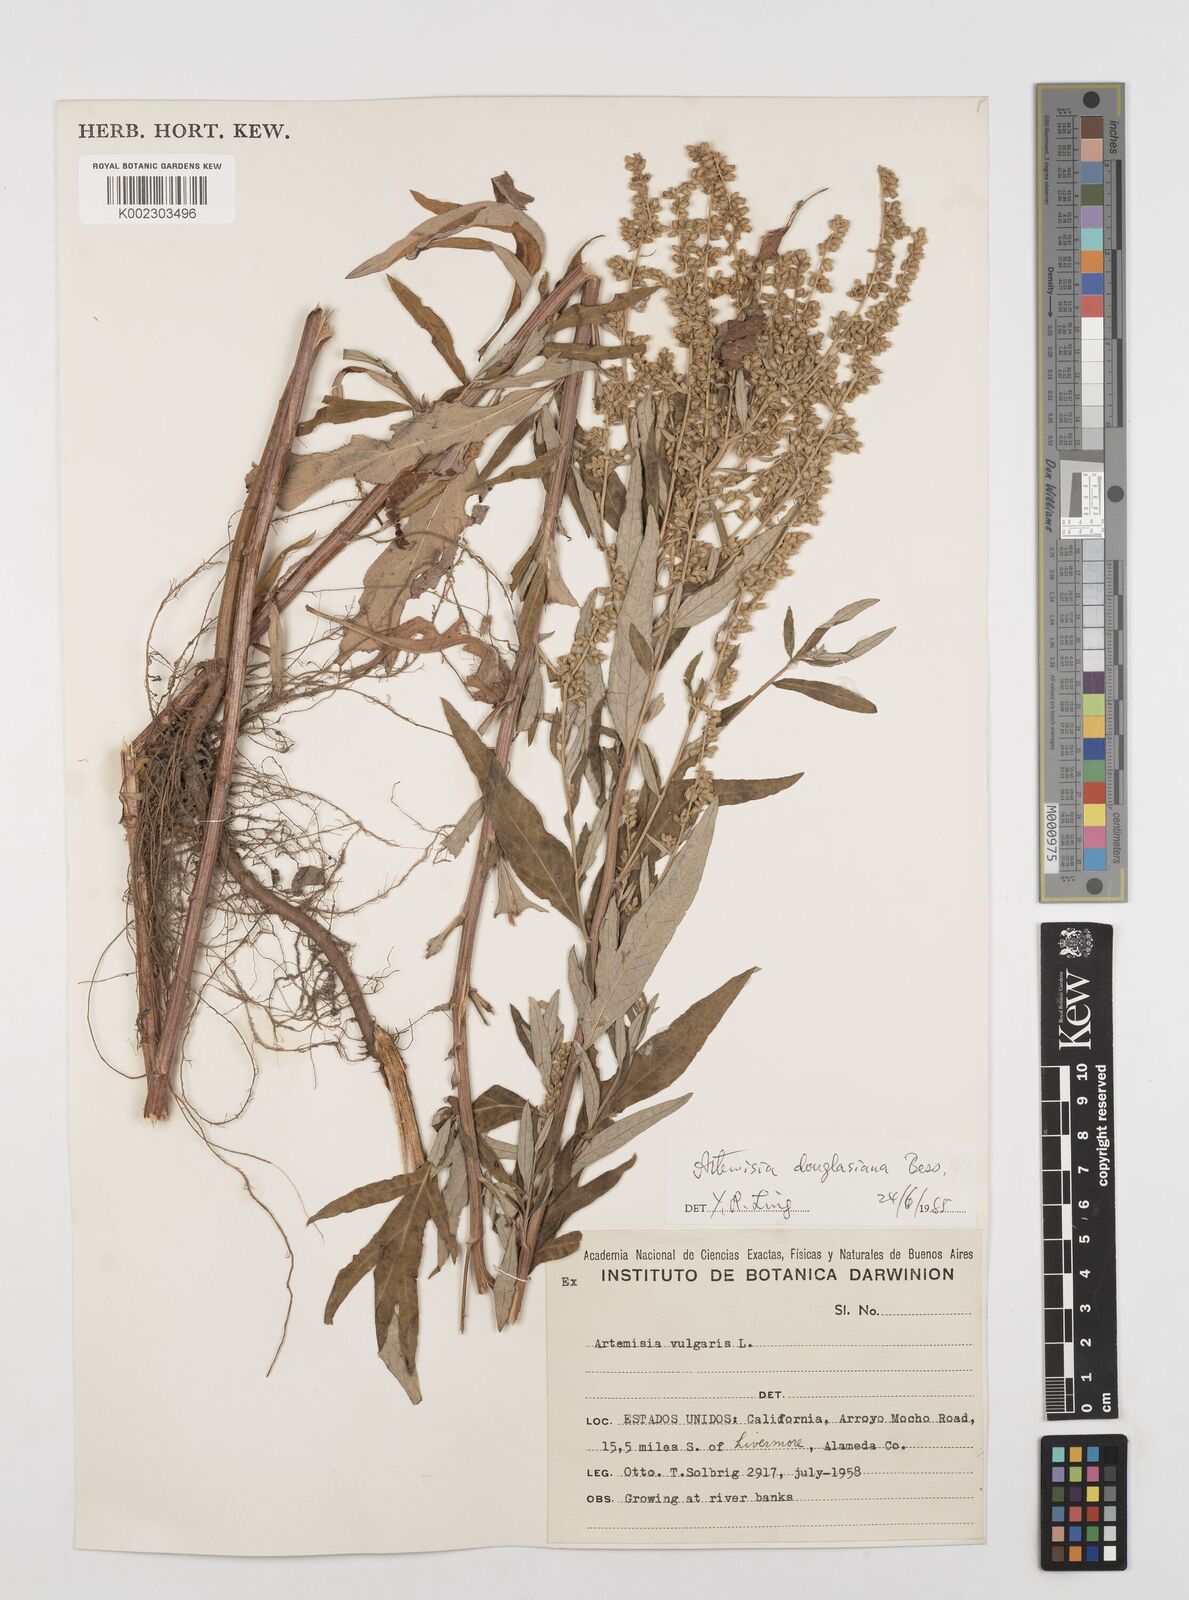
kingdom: Plantae
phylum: Tracheophyta
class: Magnoliopsida
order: Asterales
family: Asteraceae
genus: Artemisia
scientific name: Artemisia douglasiana
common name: Northwest mugwort
